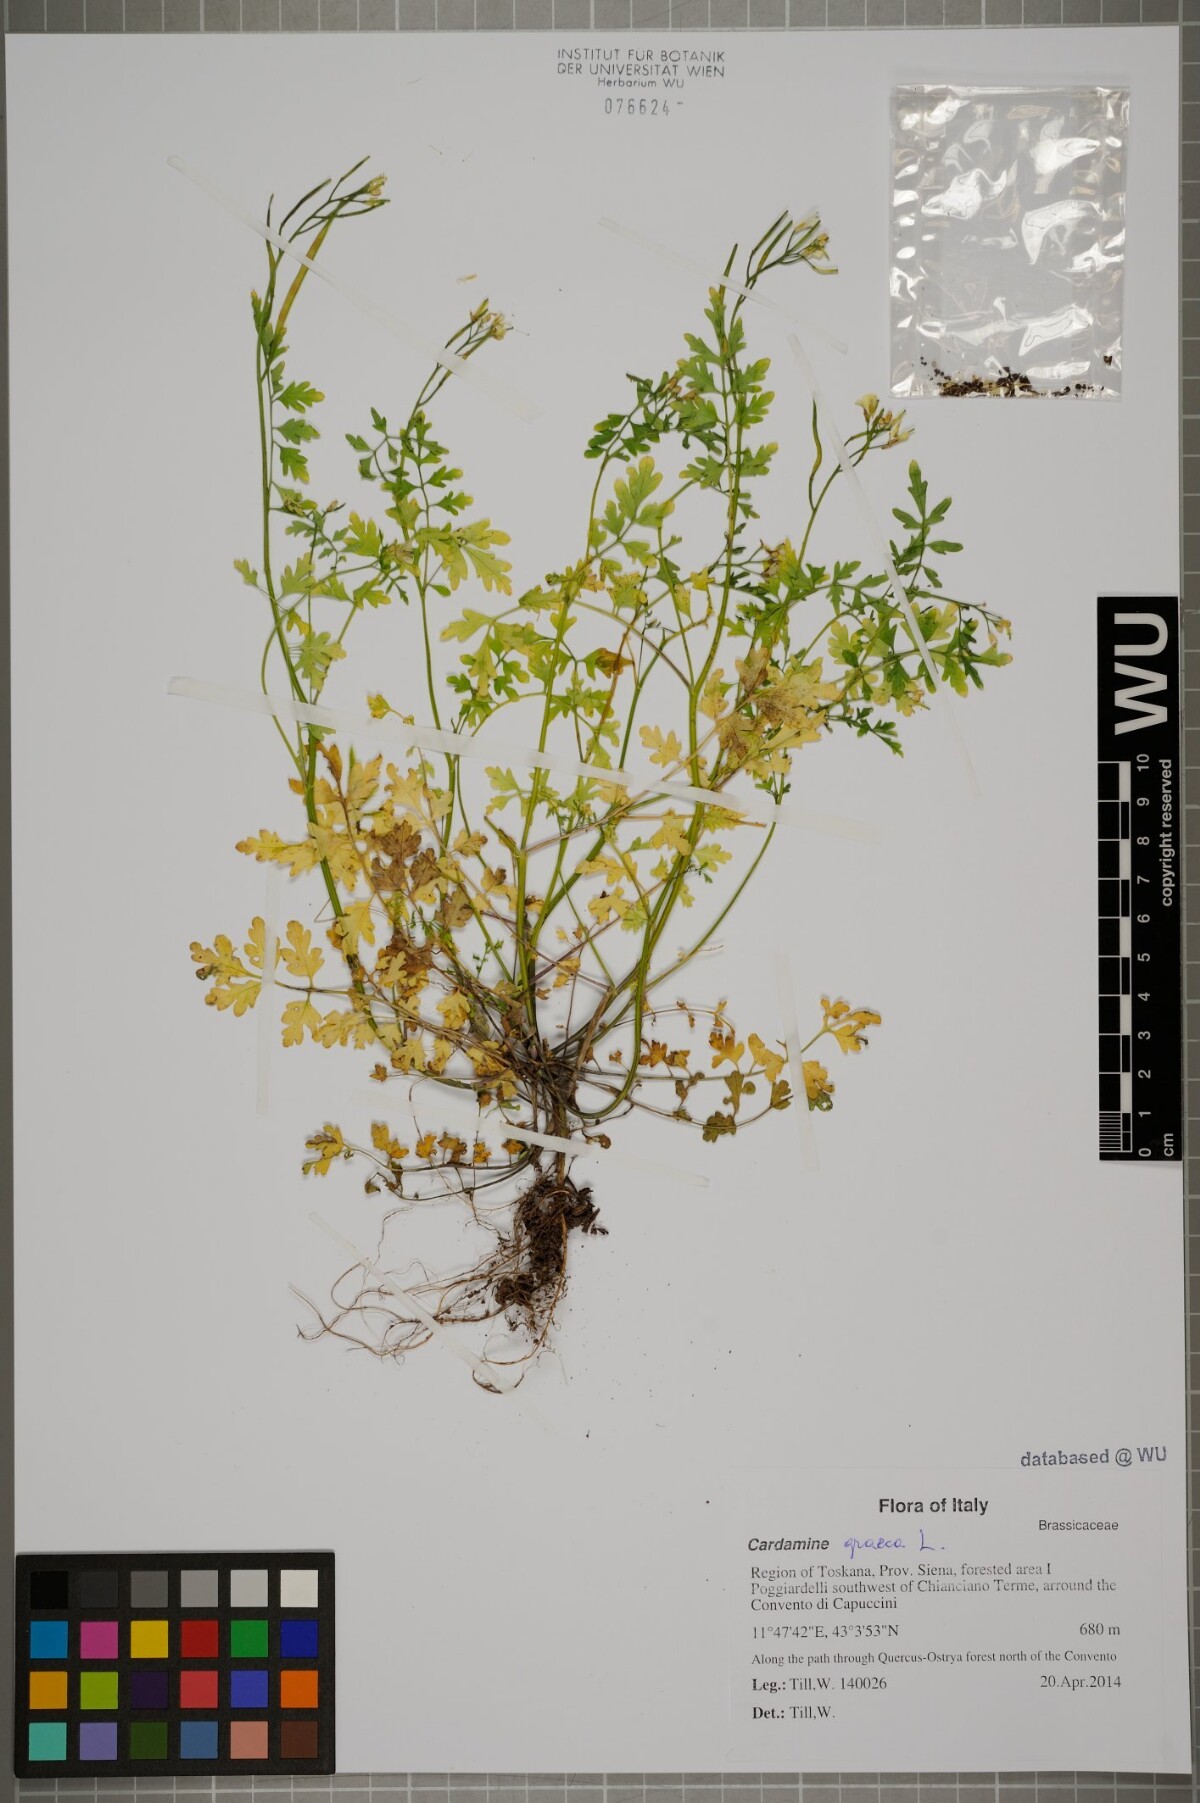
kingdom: Plantae
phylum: Tracheophyta
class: Magnoliopsida
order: Brassicales
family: Brassicaceae
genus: Cardamine
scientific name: Cardamine graeca
